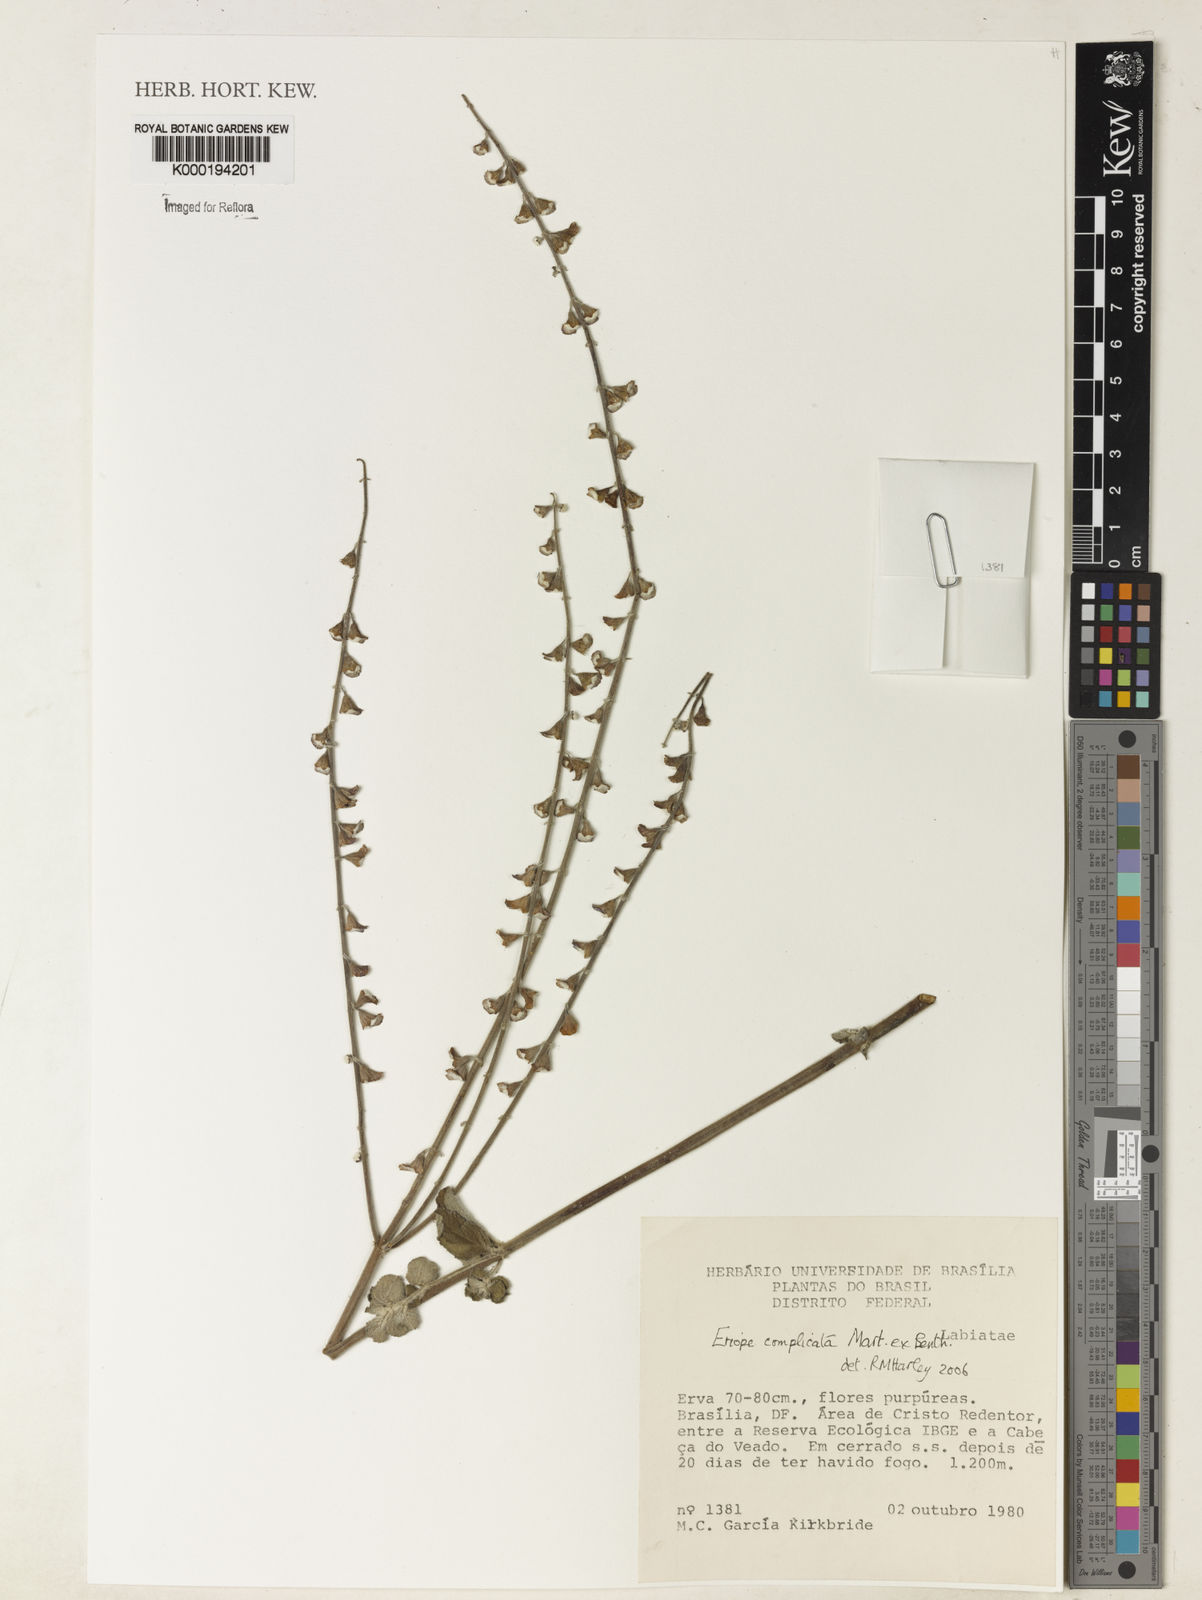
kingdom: Plantae
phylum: Tracheophyta
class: Magnoliopsida
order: Lamiales
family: Lamiaceae
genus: Eriope
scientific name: Eriope complicata
